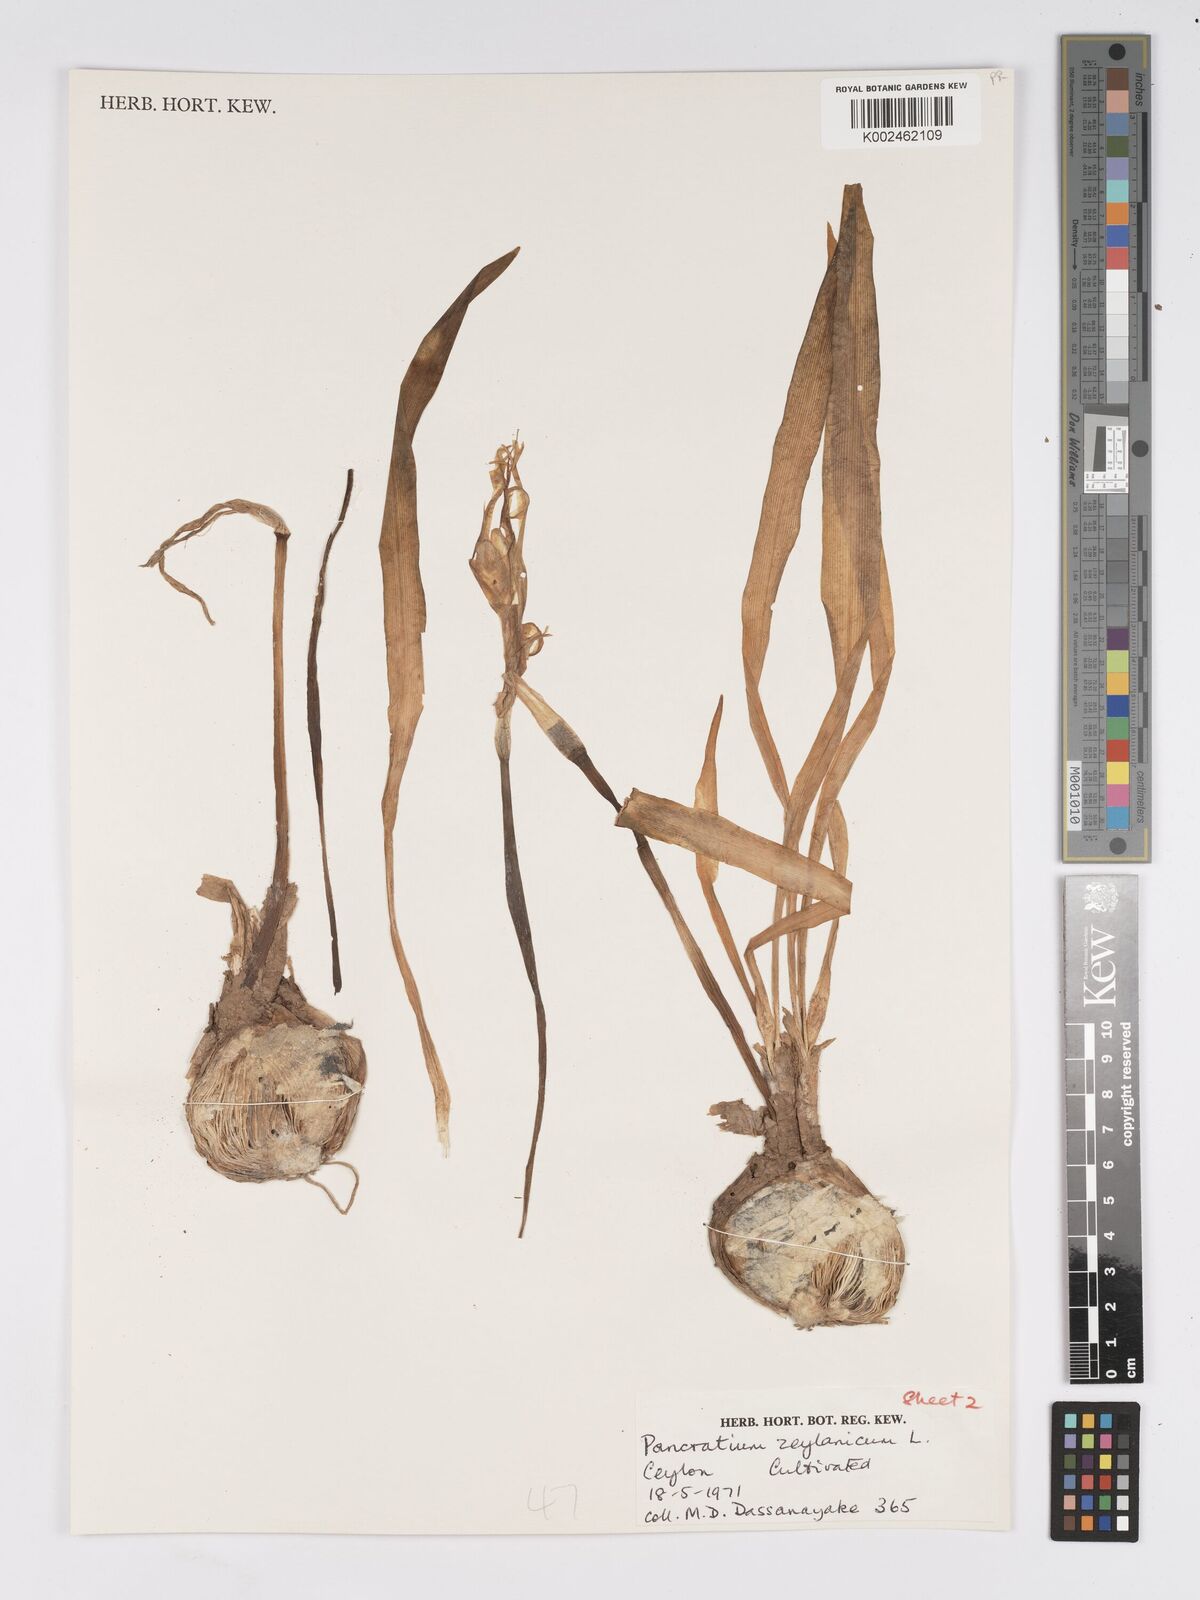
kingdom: Plantae
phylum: Tracheophyta
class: Liliopsida
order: Asparagales
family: Amaryllidaceae
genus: Pancratium
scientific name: Pancratium zeylanicum
